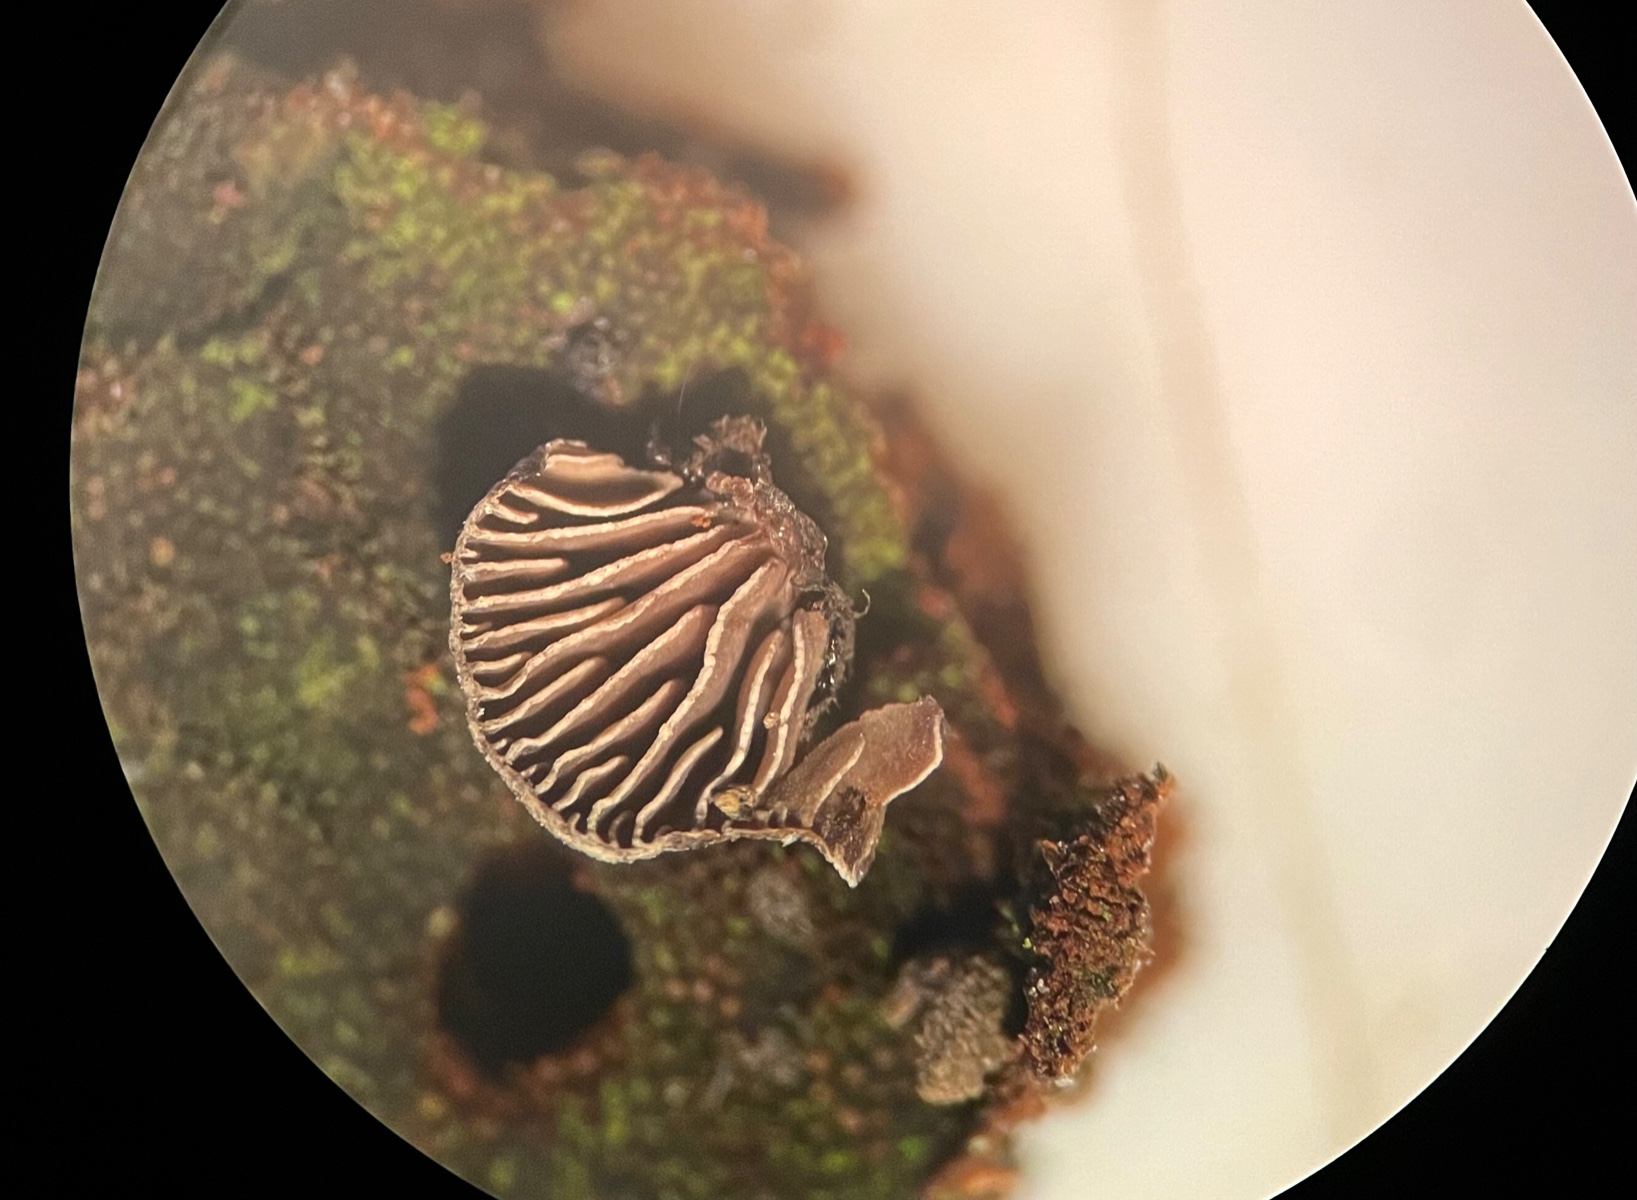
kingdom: Fungi
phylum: Basidiomycota
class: Agaricomycetes
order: Agaricales
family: Pleurotaceae
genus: Resupinatus
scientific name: Resupinatus trichotis
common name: mørkfiltet barkhat
